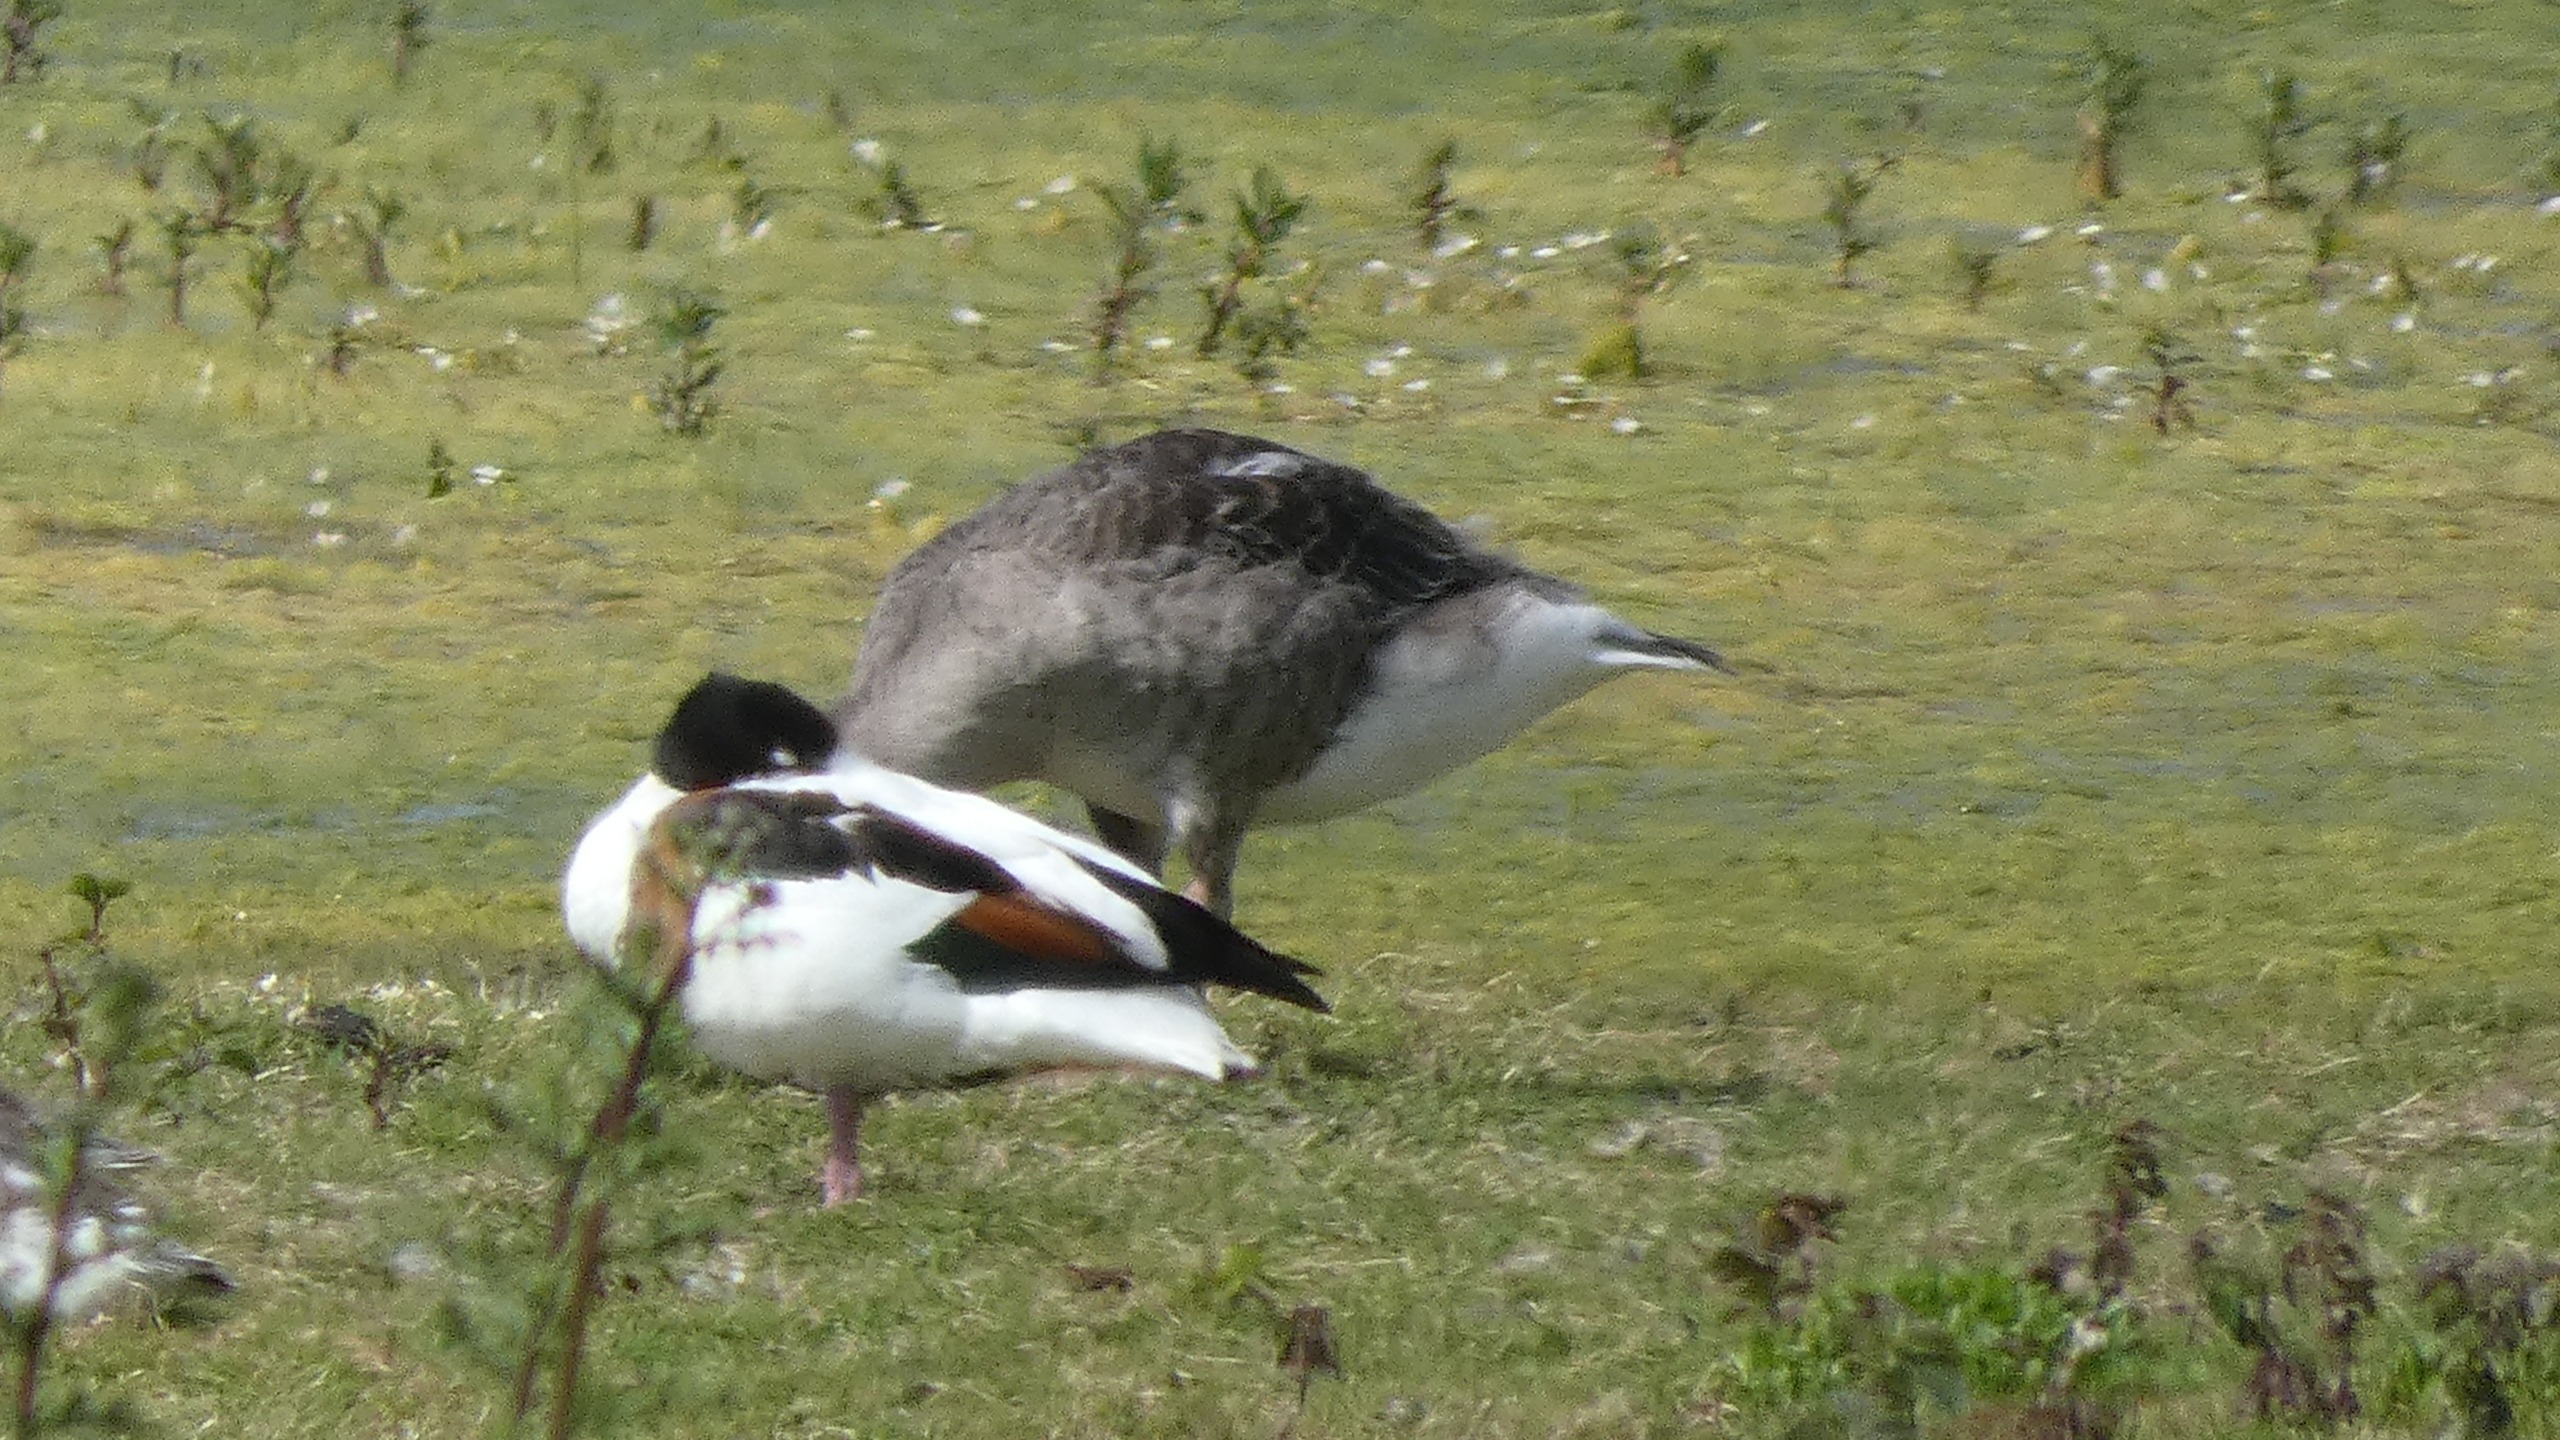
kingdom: Animalia
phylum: Chordata
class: Aves
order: Anseriformes
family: Anatidae
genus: Tadorna
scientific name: Tadorna tadorna
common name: Gravand
